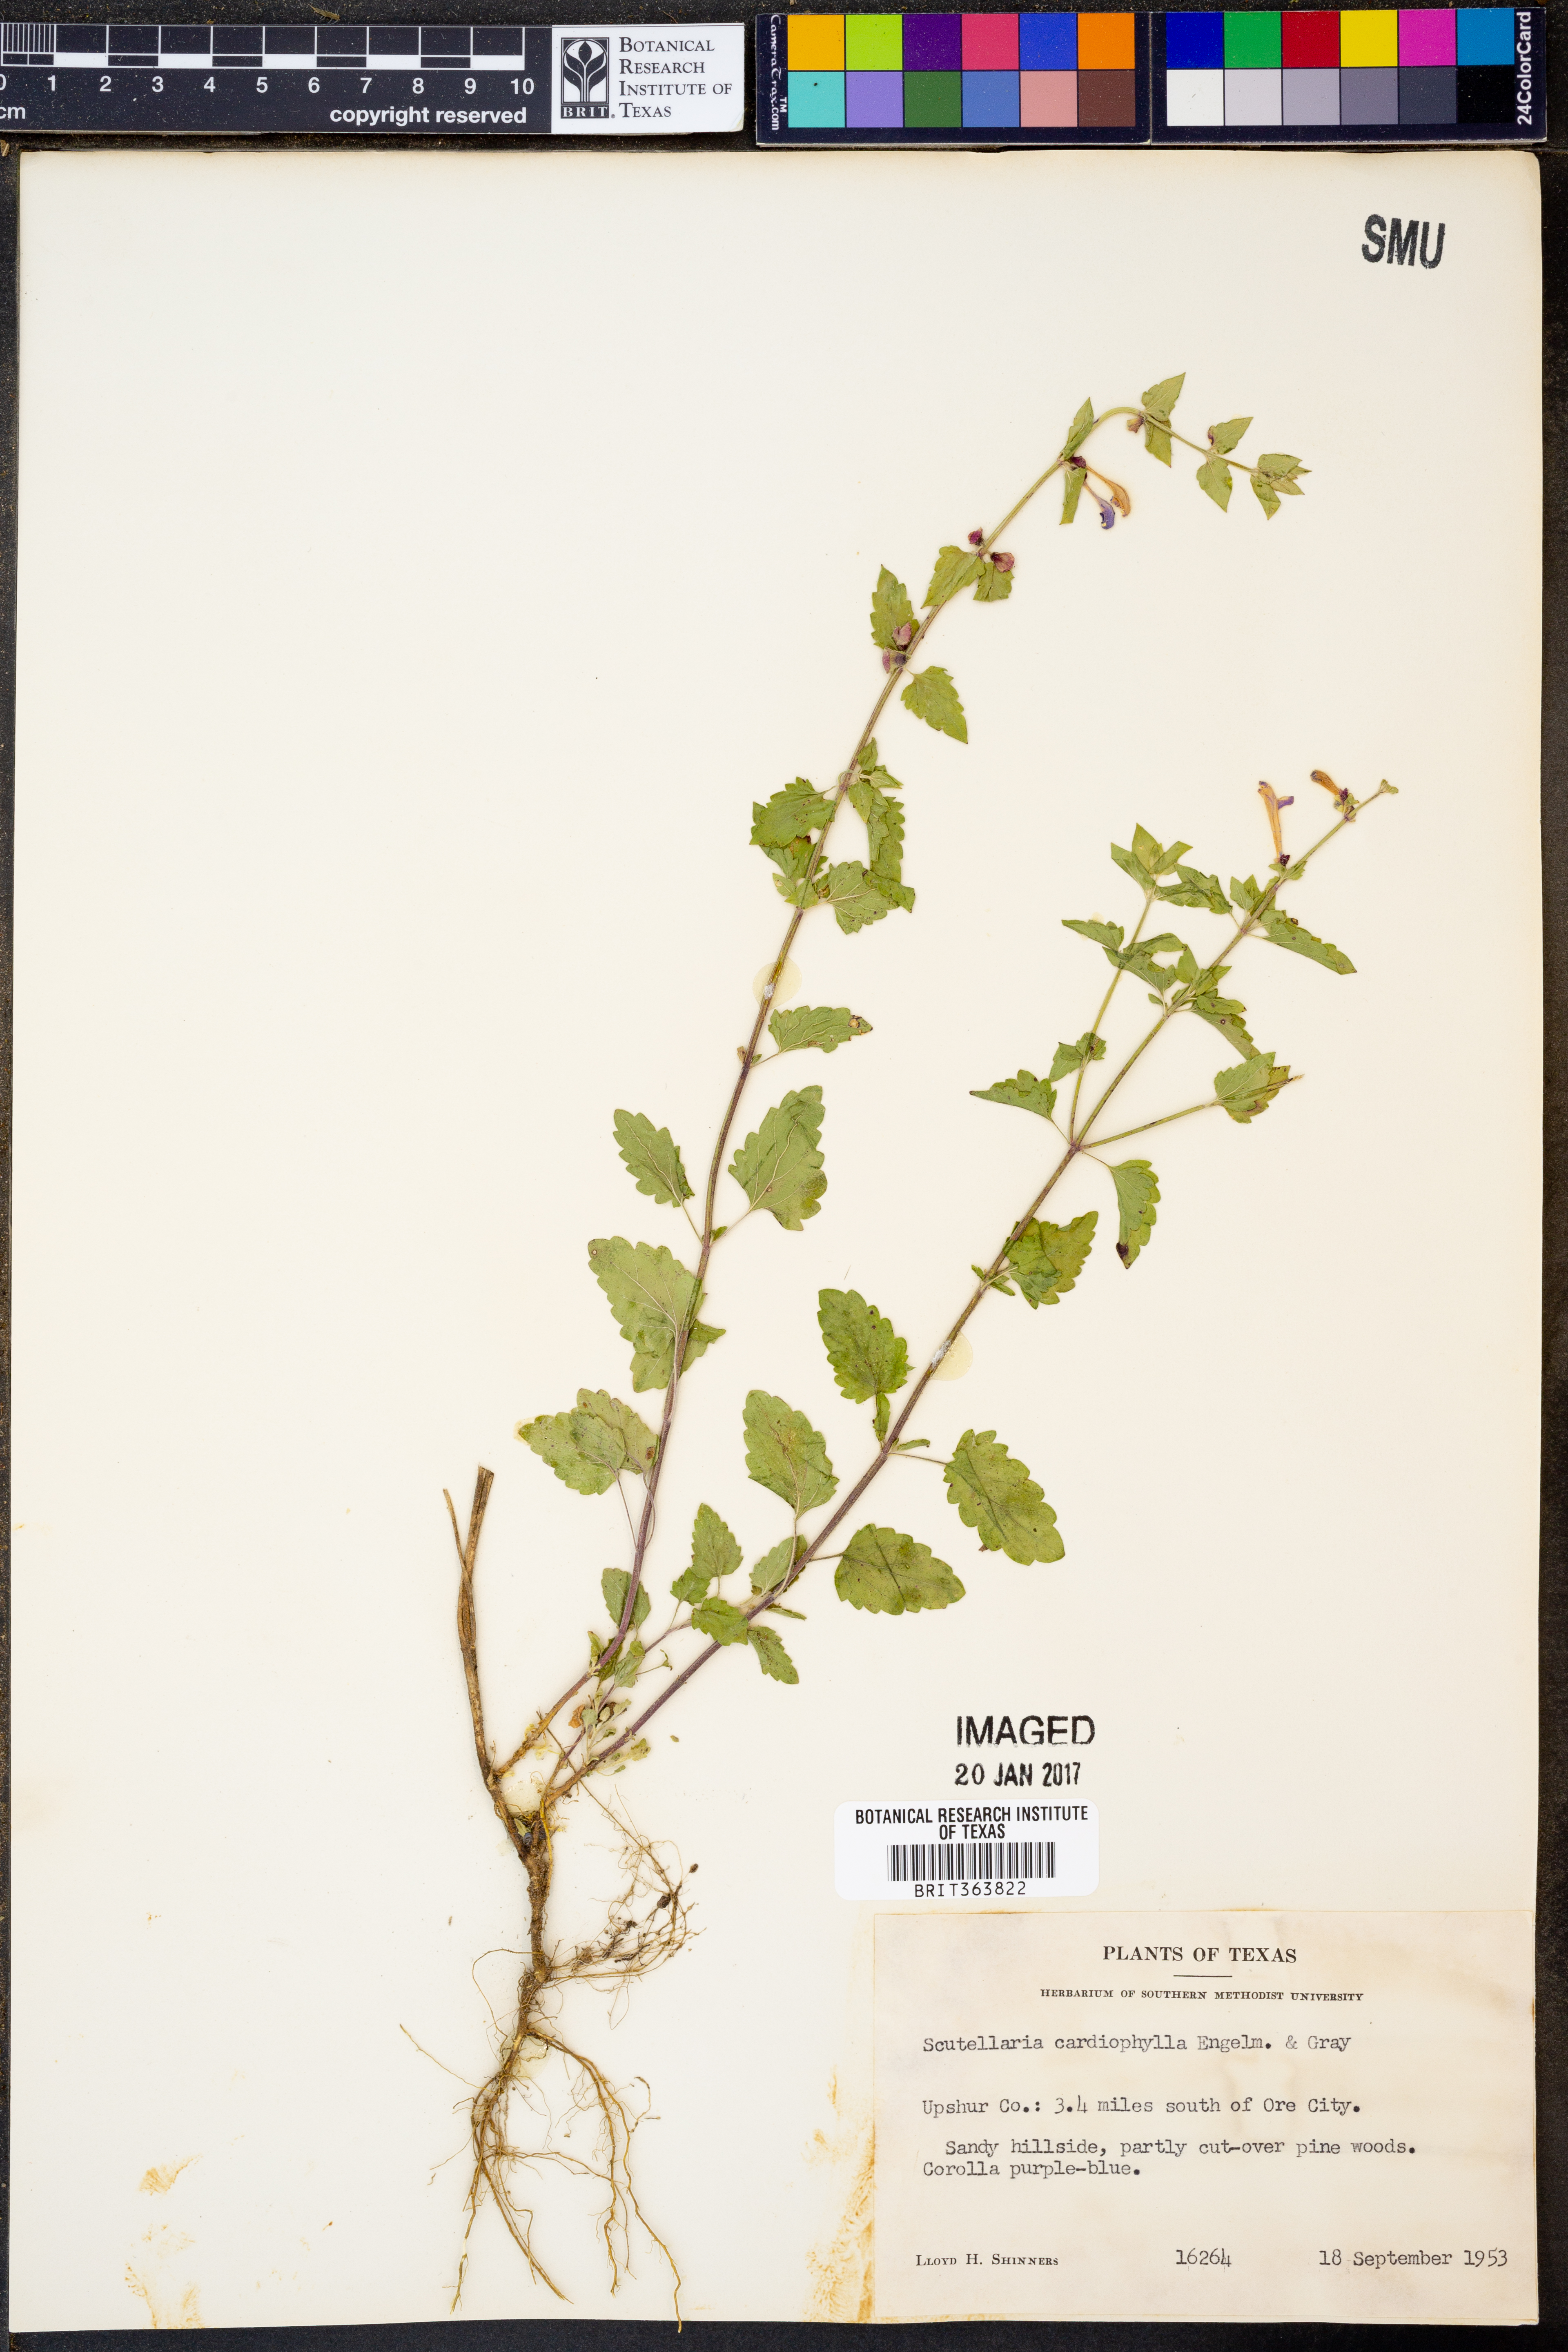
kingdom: Plantae
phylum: Tracheophyta
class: Magnoliopsida
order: Lamiales
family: Lamiaceae
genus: Scutellaria
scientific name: Scutellaria cardiophylla
